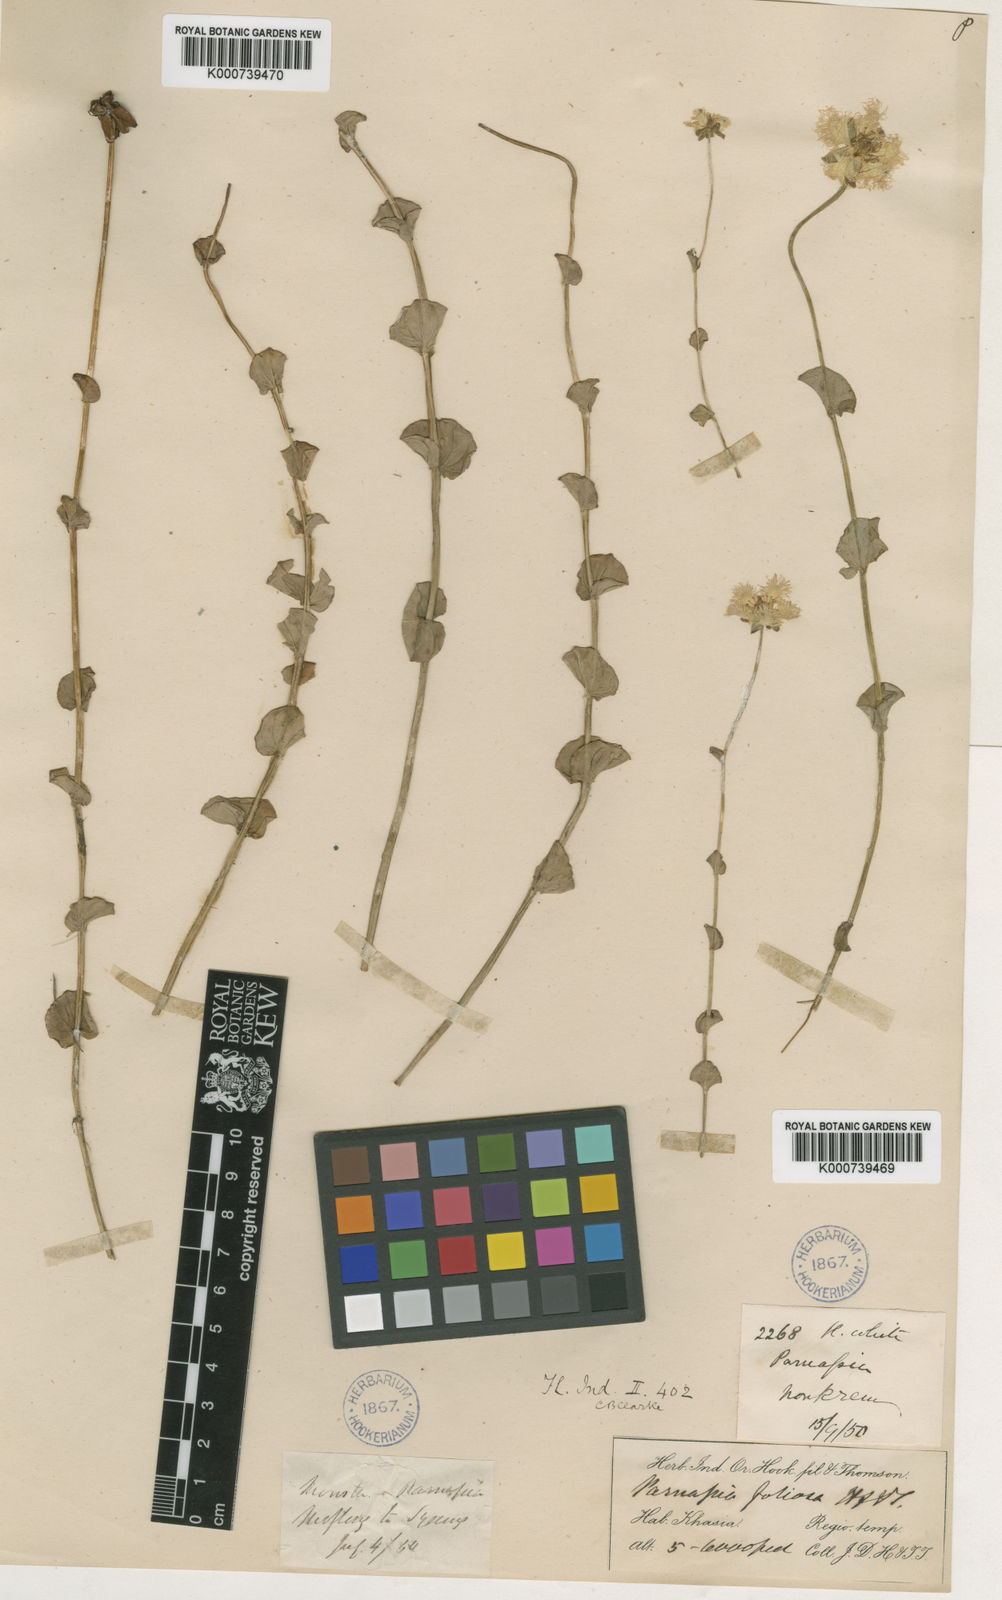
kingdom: Plantae
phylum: Tracheophyta
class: Magnoliopsida
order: Celastrales
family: Parnassiaceae
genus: Parnassia
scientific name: Parnassia foliosa
